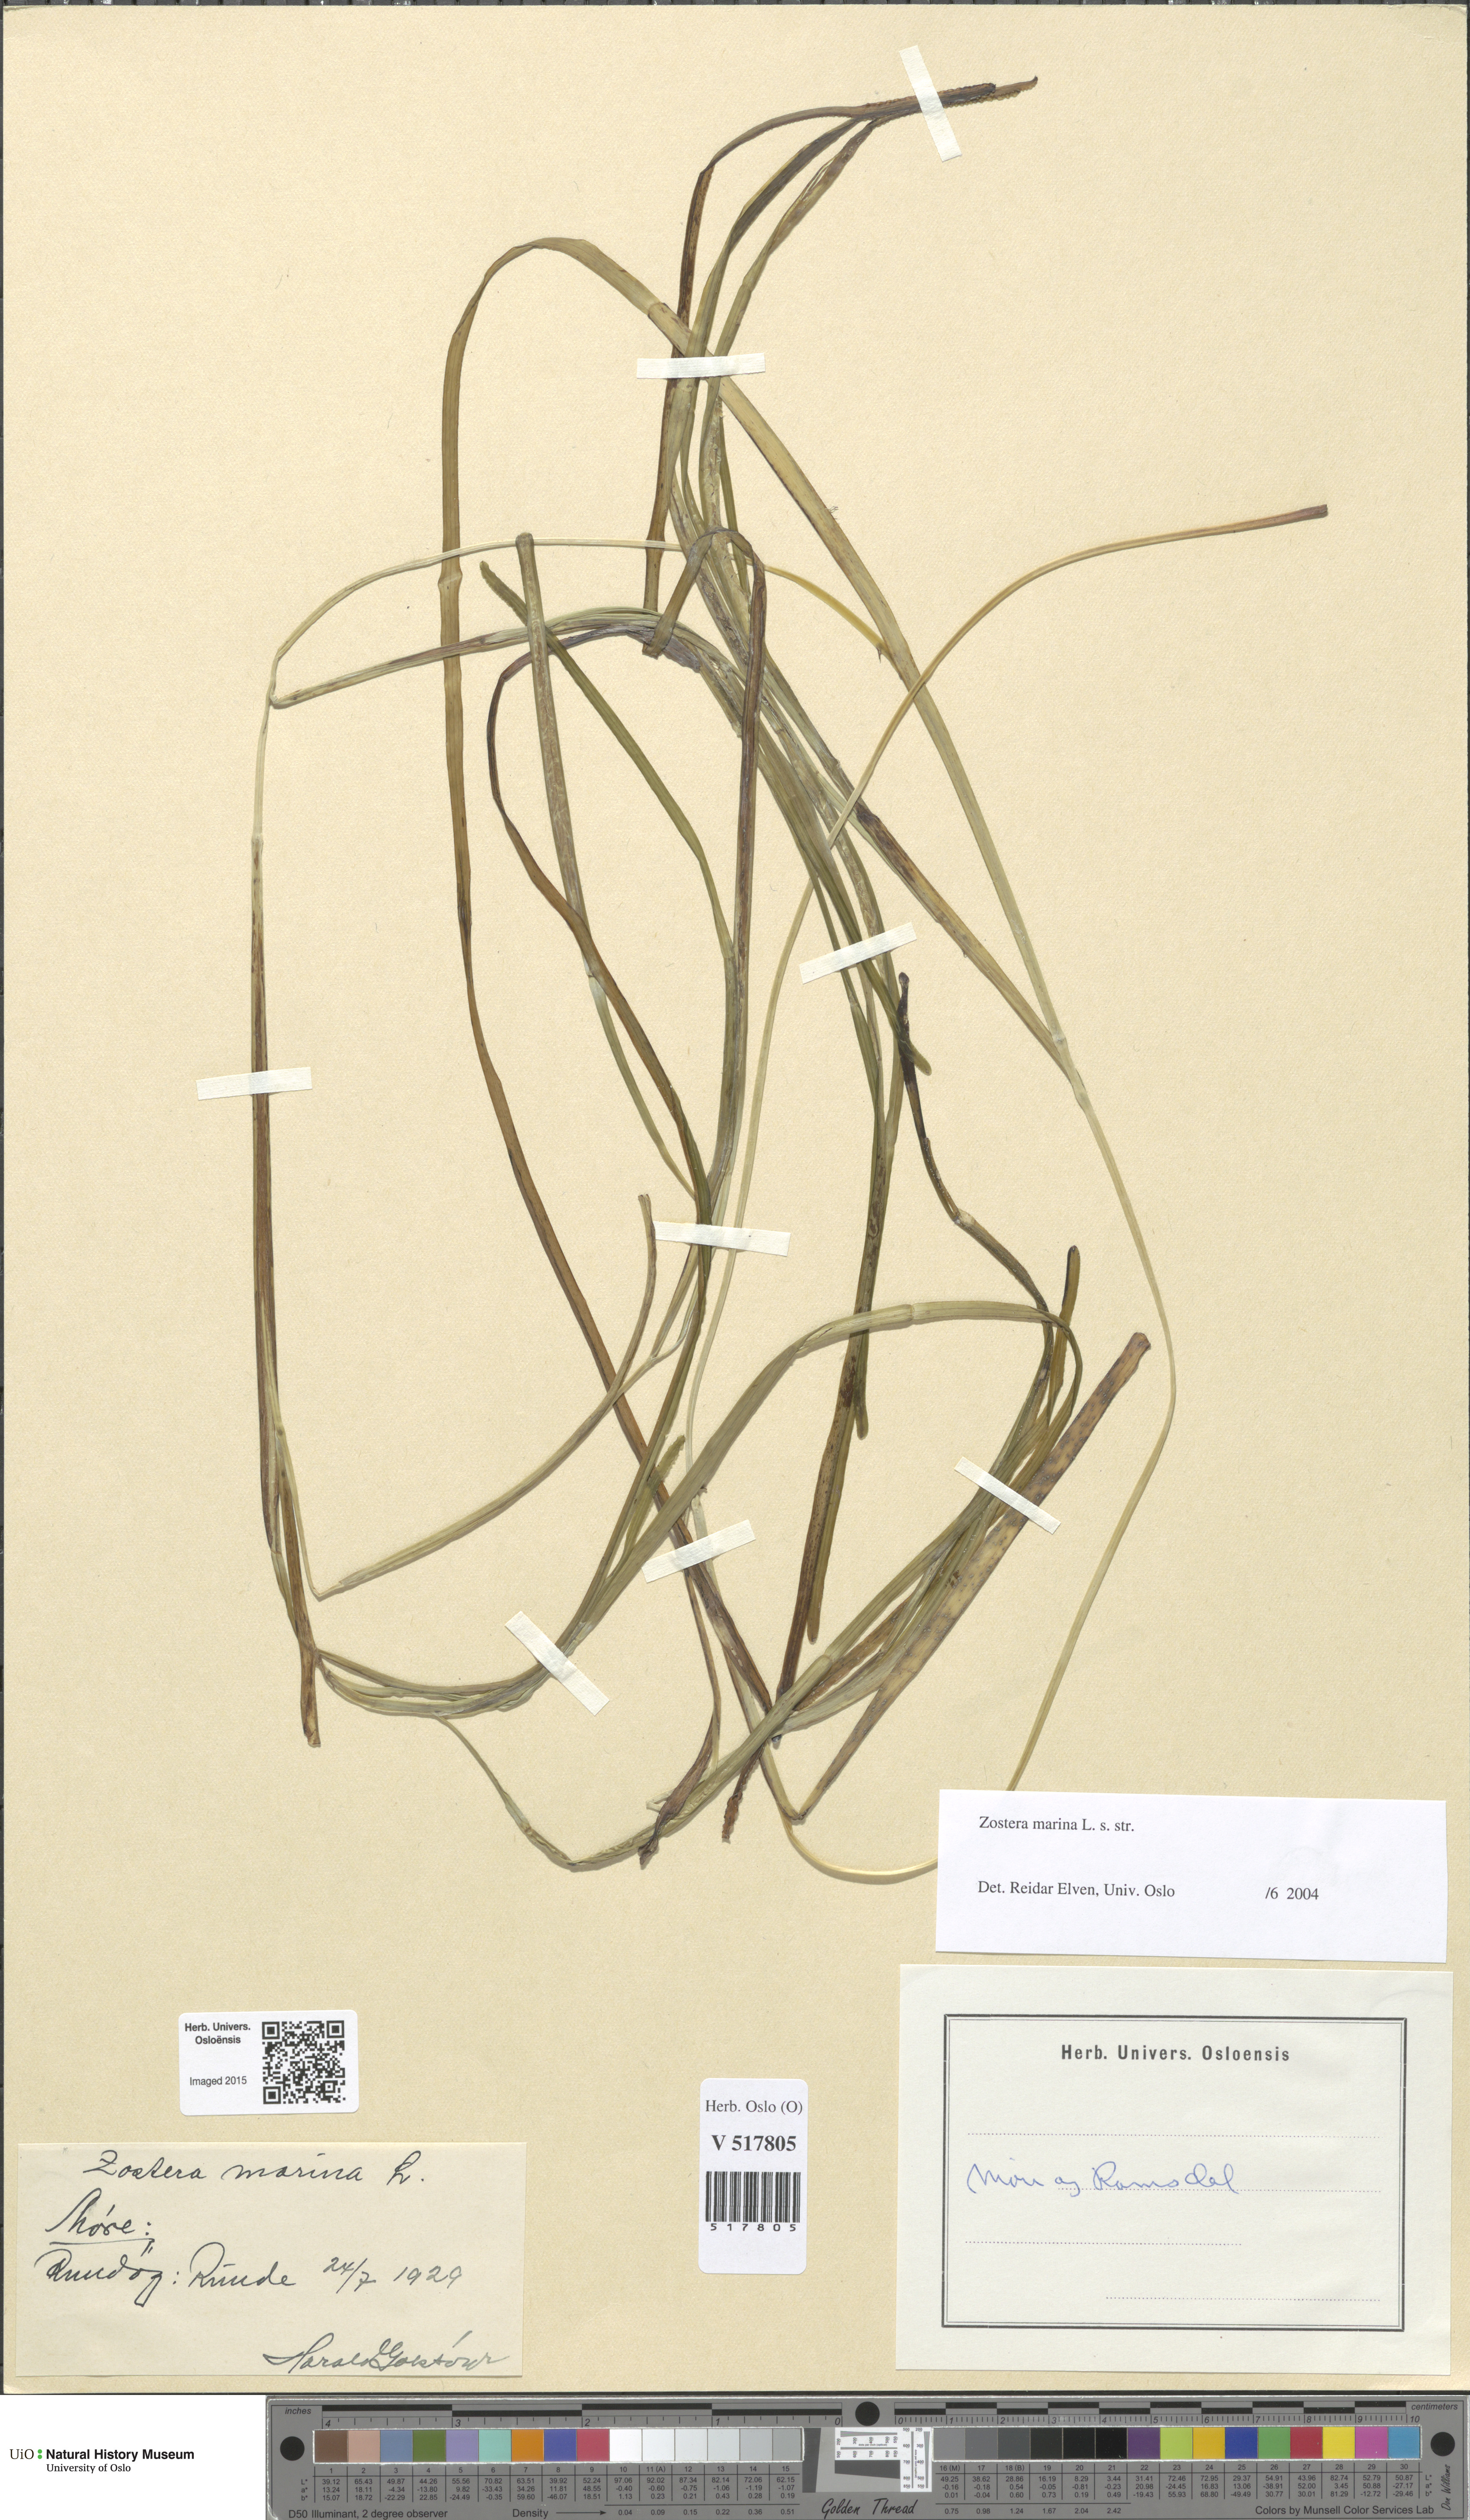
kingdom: Plantae
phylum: Tracheophyta
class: Liliopsida
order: Alismatales
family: Zosteraceae
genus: Zostera
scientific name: Zostera marina
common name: Eelgrass
